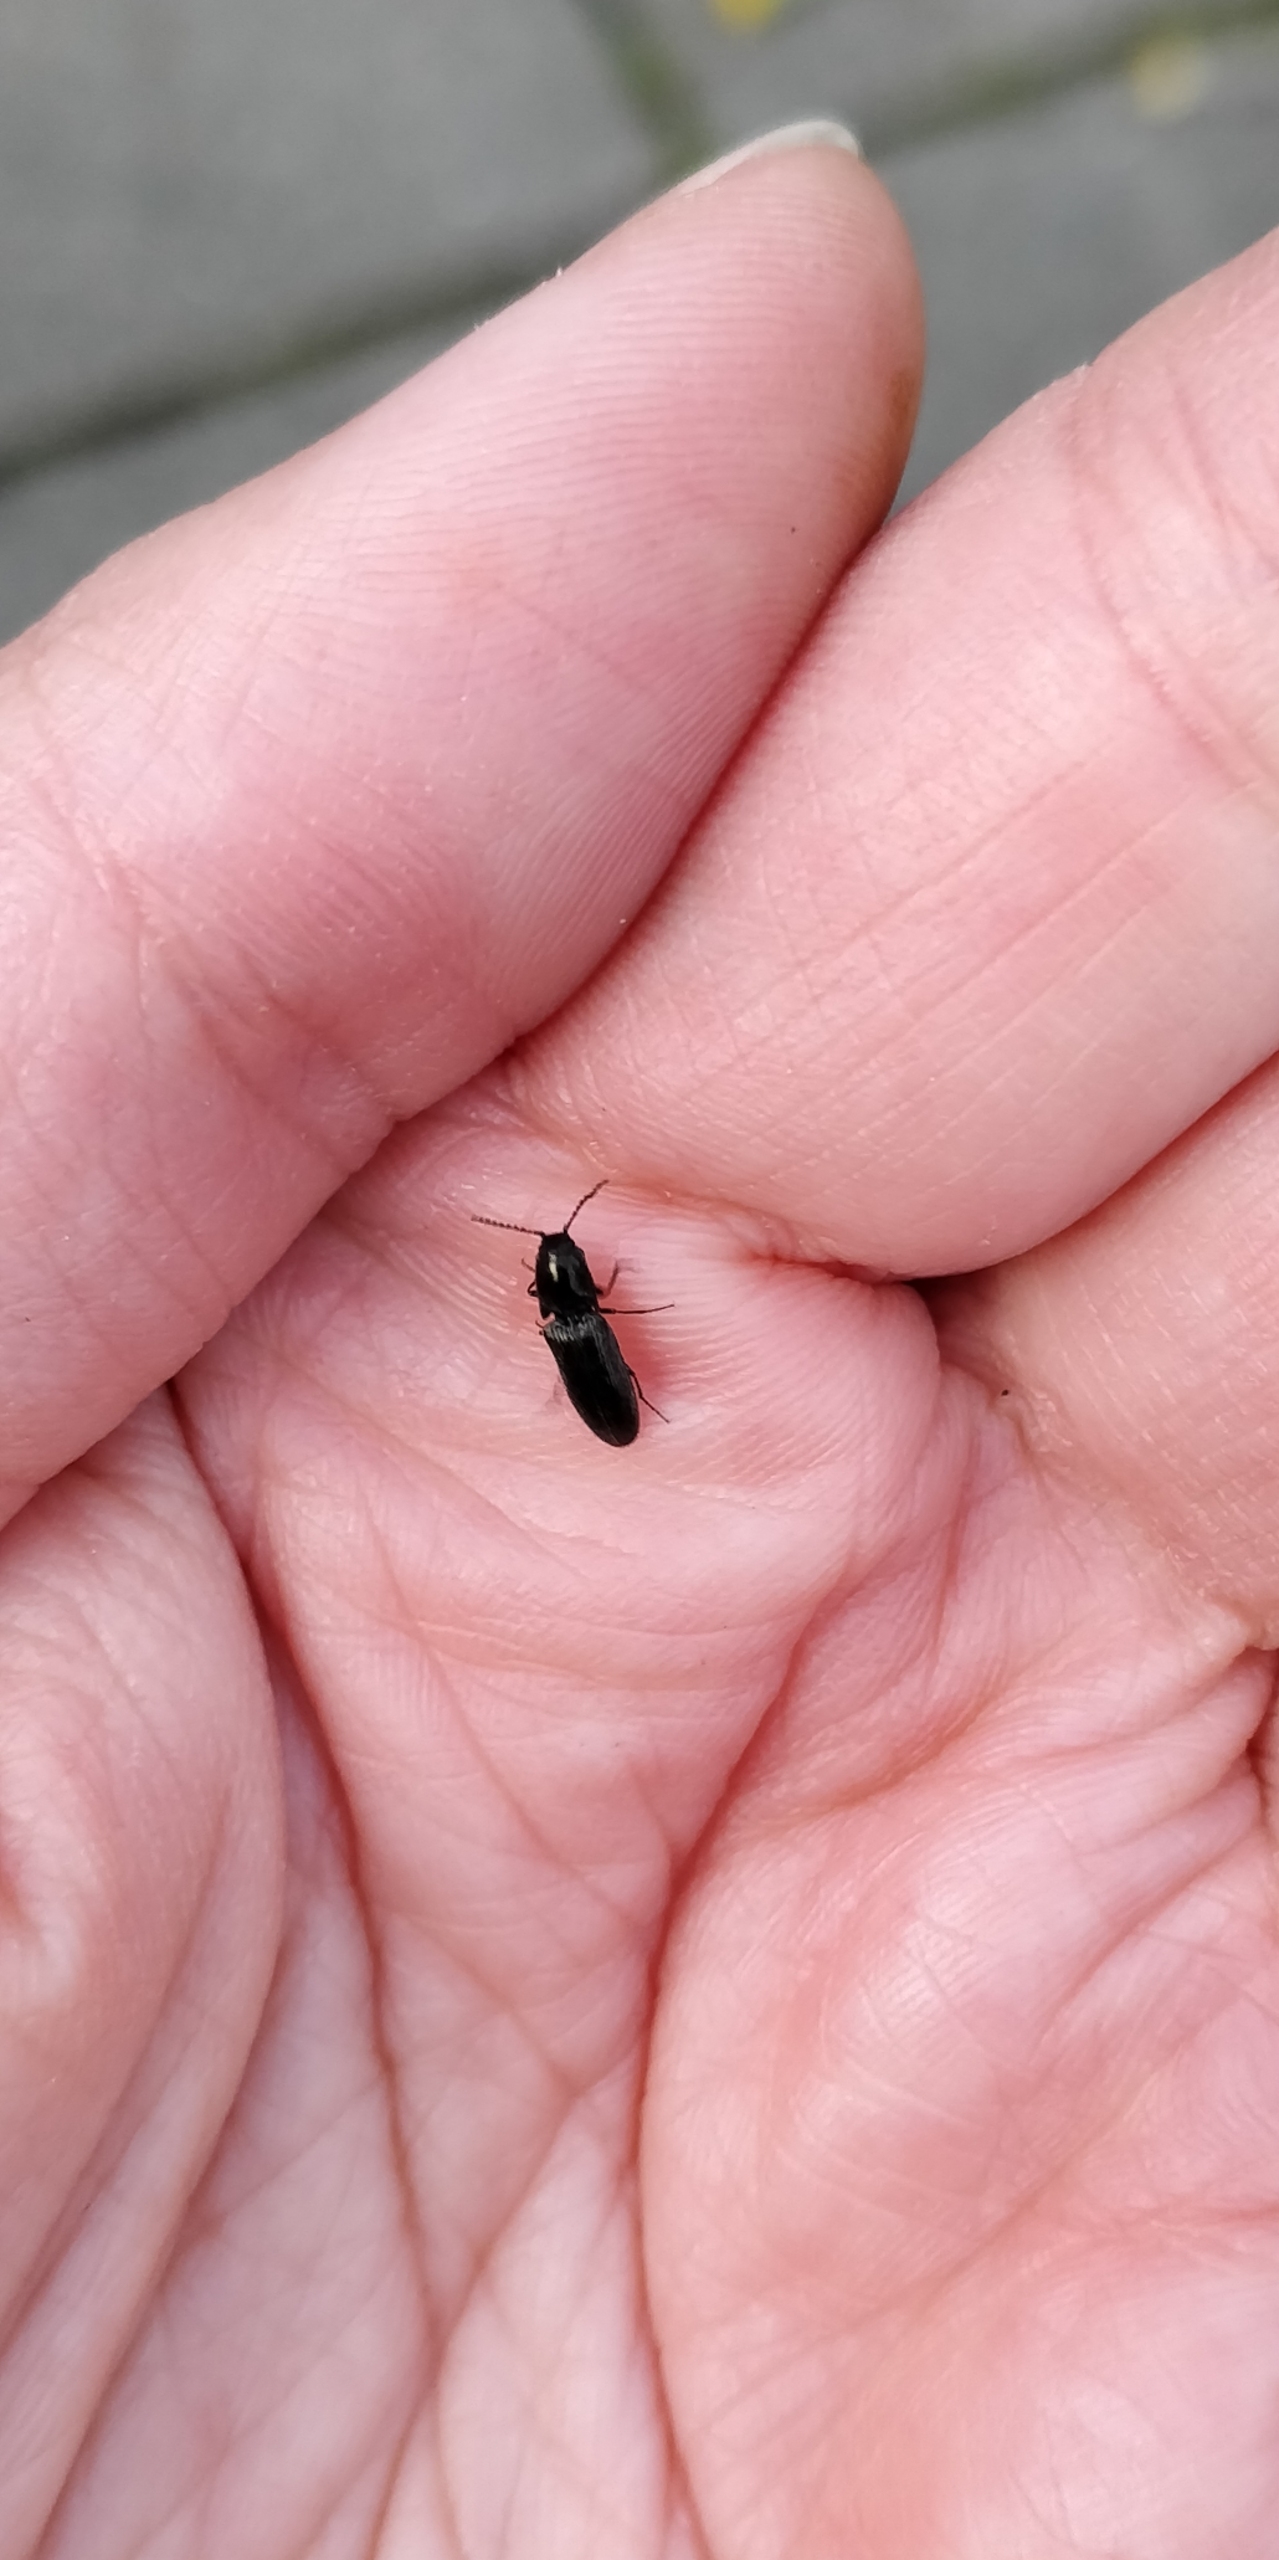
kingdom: Animalia
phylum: Arthropoda
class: Insecta
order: Coleoptera
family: Elateridae
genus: Limonius
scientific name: Limonius minutus
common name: Liden græssmælder
